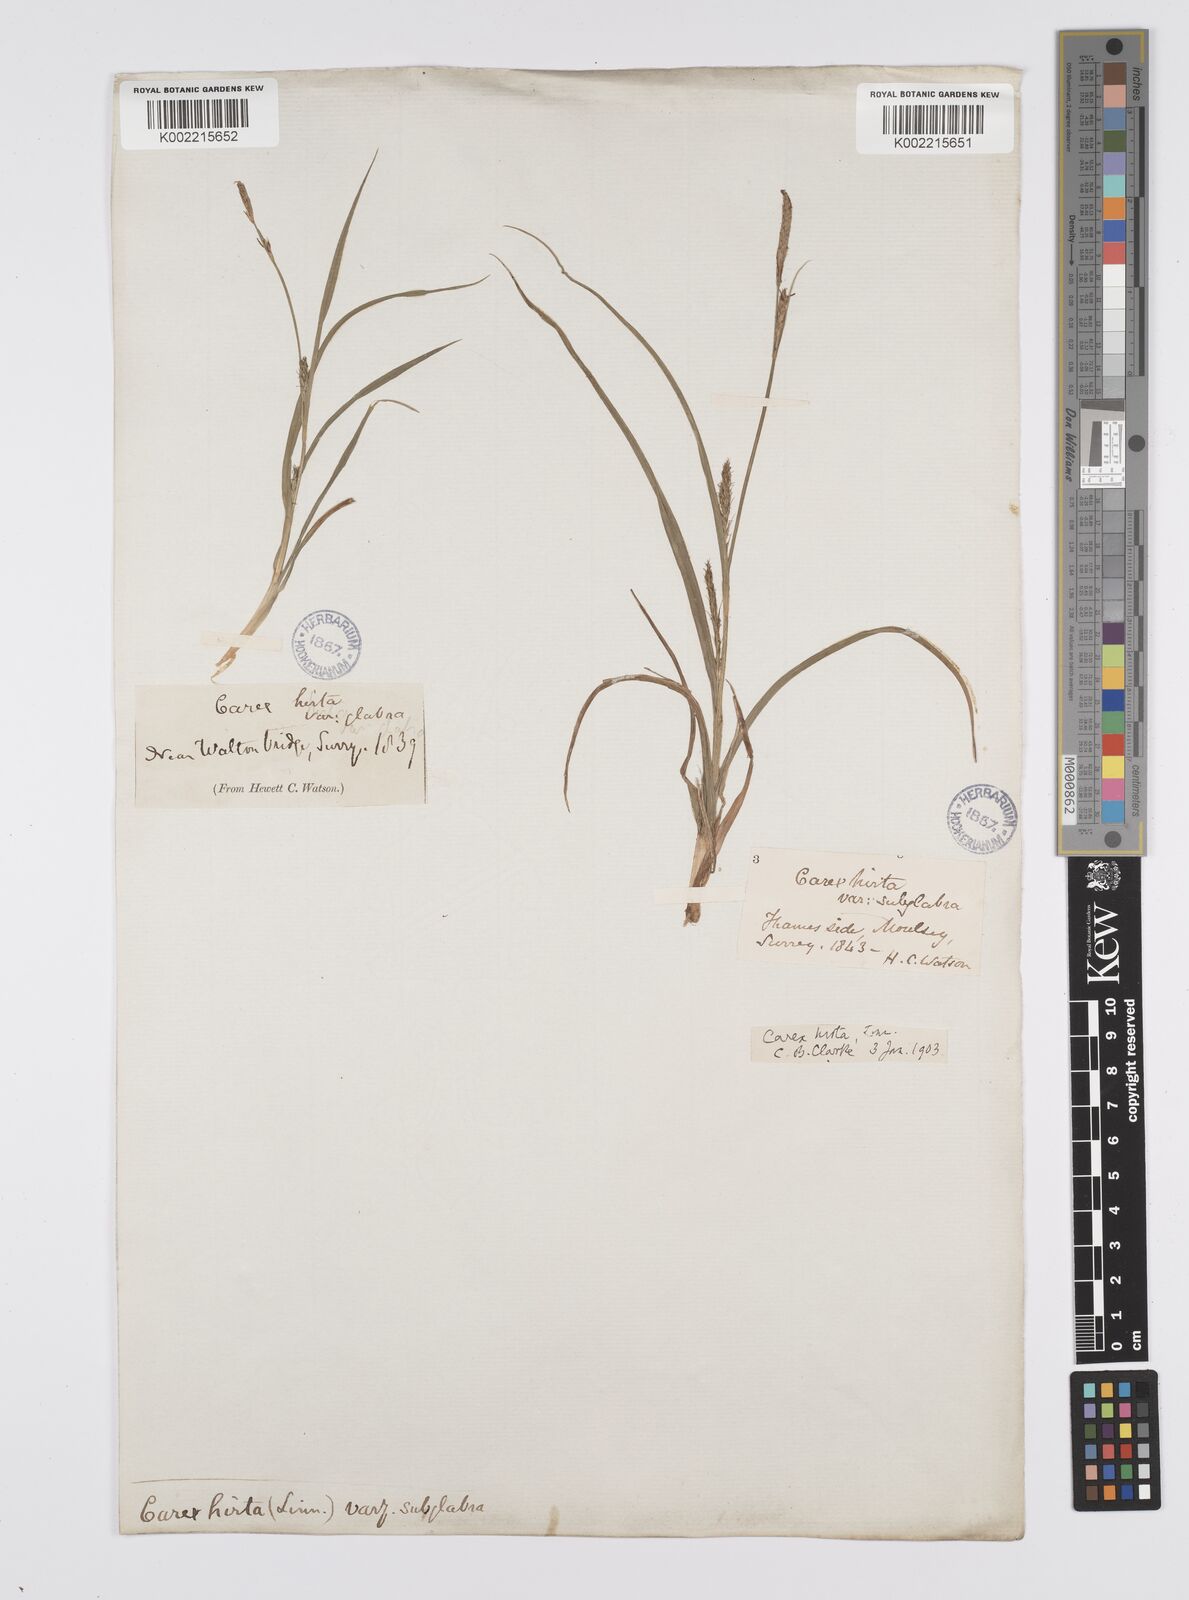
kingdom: Plantae
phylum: Tracheophyta
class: Liliopsida
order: Poales
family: Cyperaceae
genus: Carex
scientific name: Carex hirta
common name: Hairy sedge
